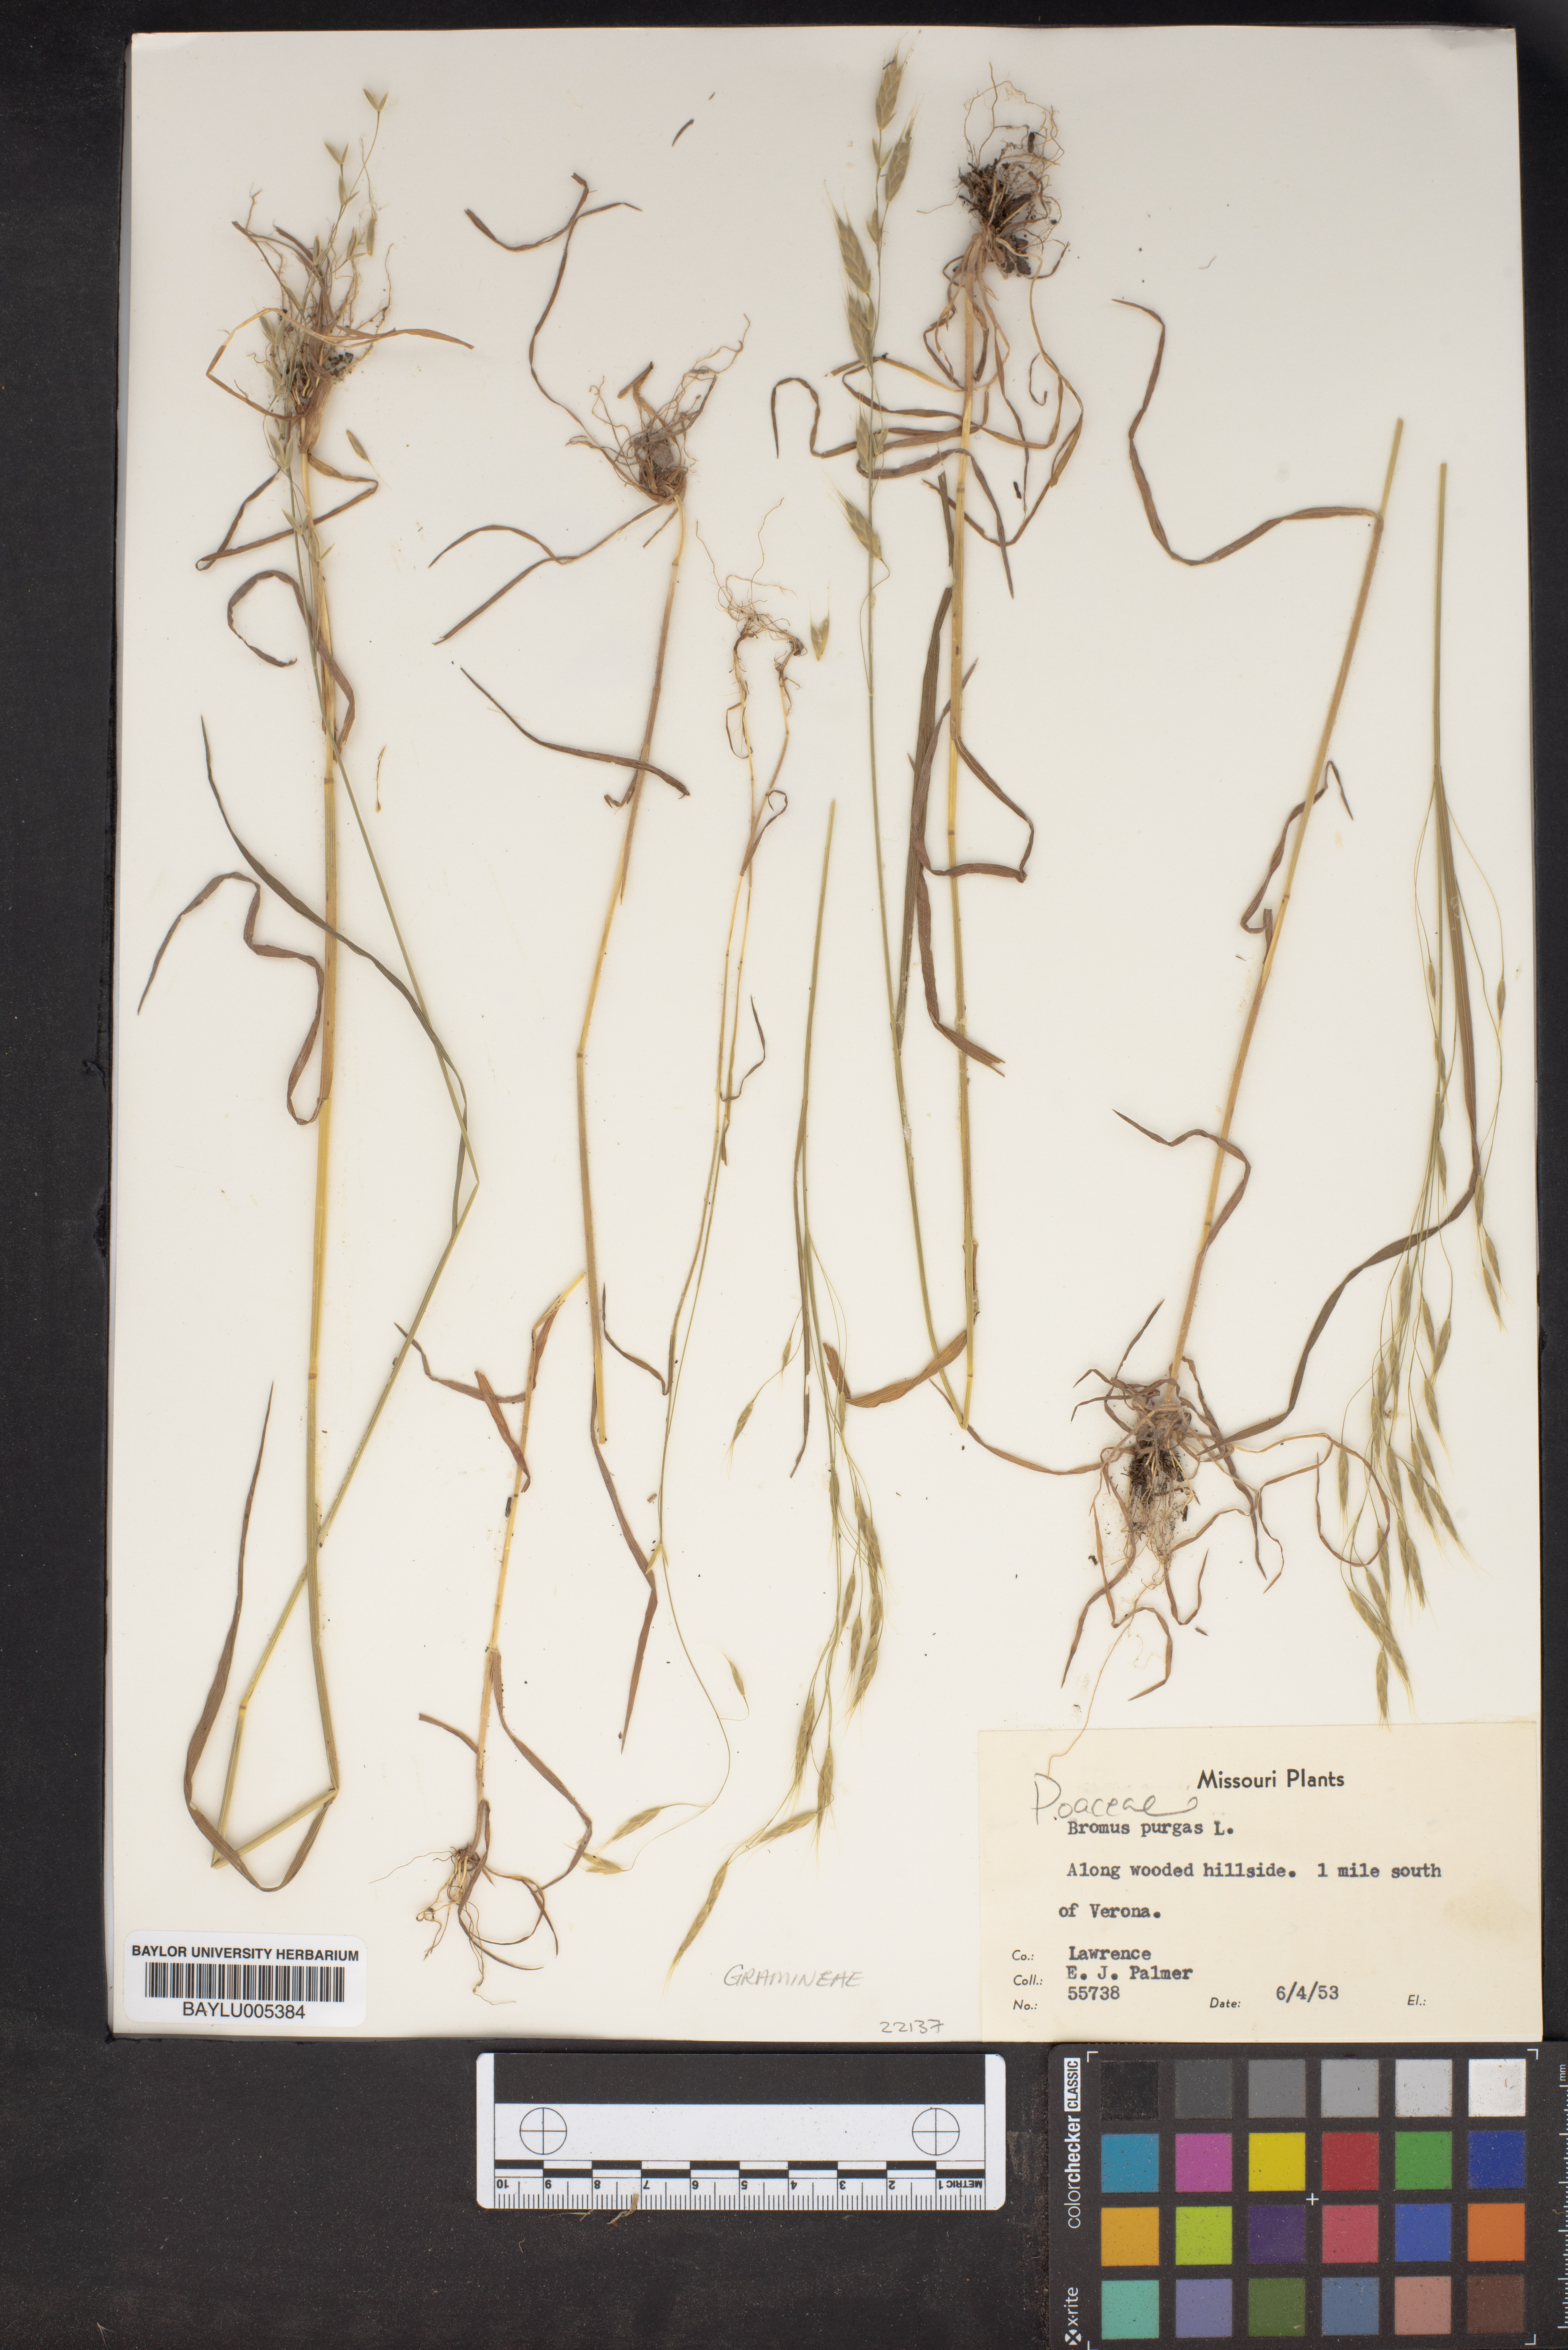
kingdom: Plantae
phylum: Tracheophyta
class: Liliopsida
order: Poales
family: Poaceae
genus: Triticum
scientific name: Triticum Bromus purgans
